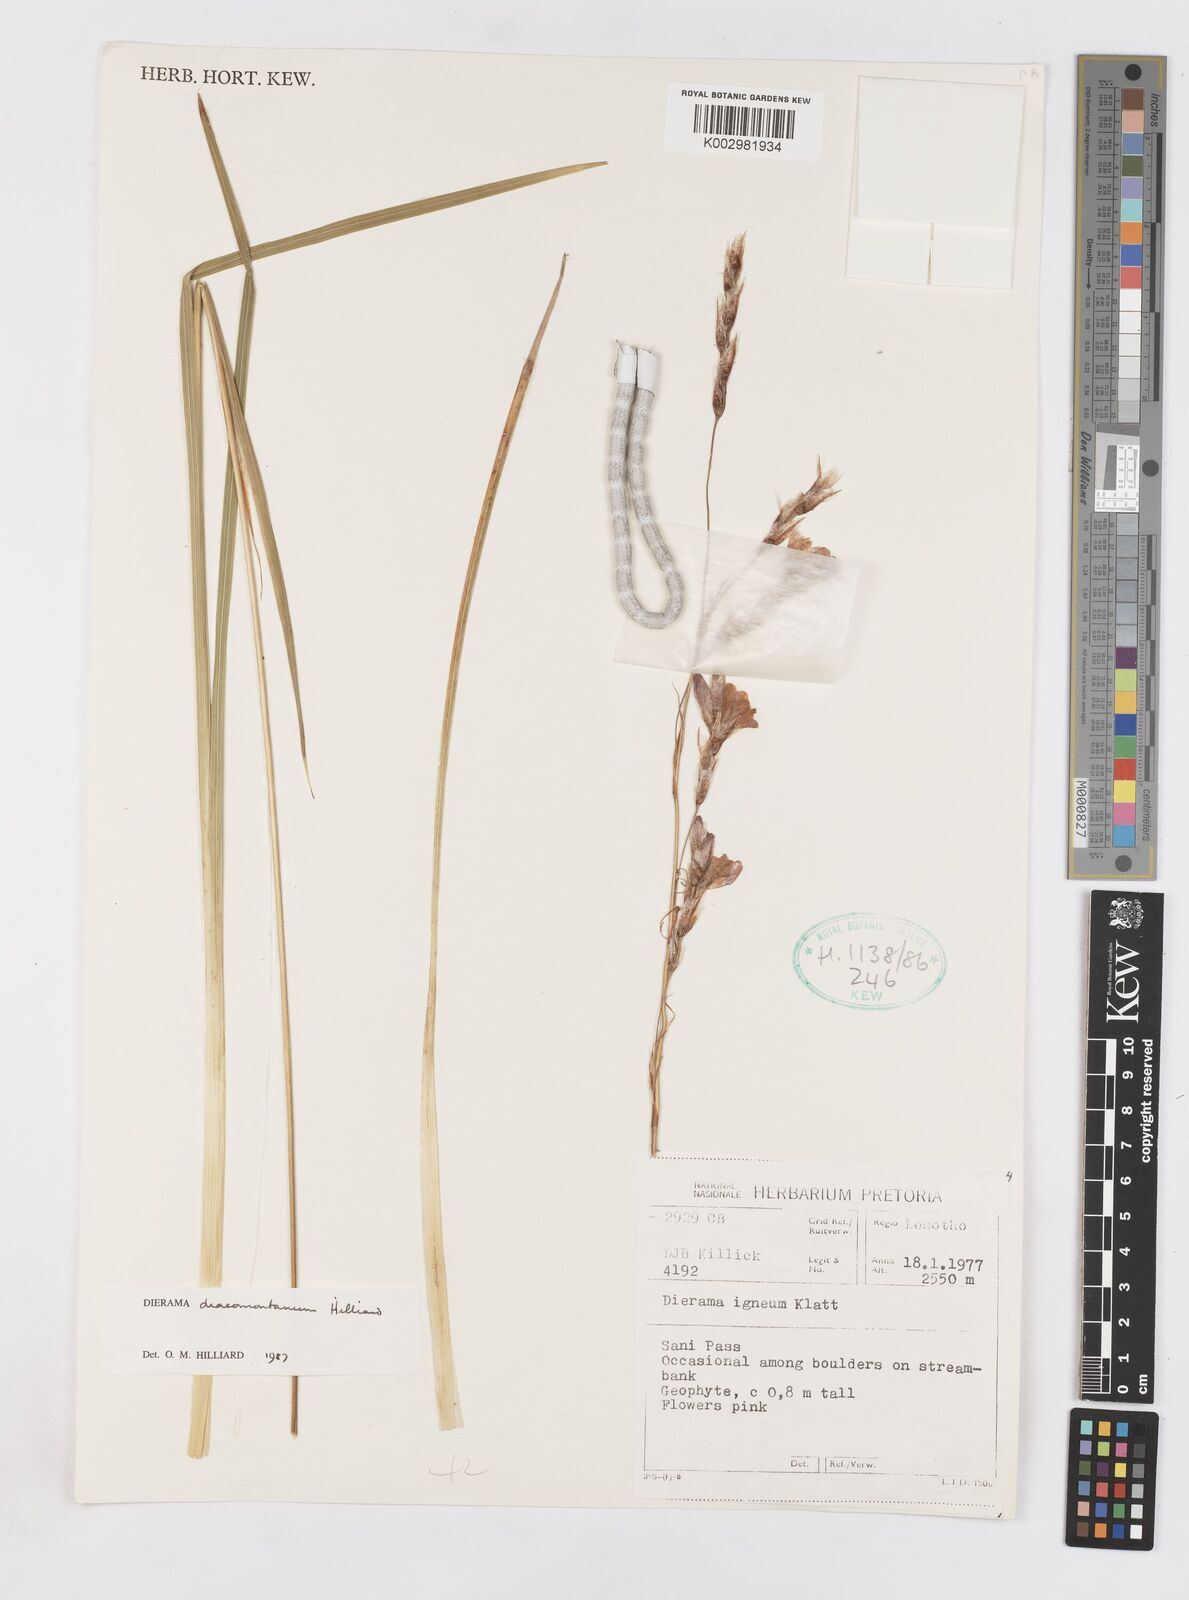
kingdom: Plantae
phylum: Tracheophyta
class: Liliopsida
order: Asparagales
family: Iridaceae
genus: Dierama
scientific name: Dierama dracomontanum
